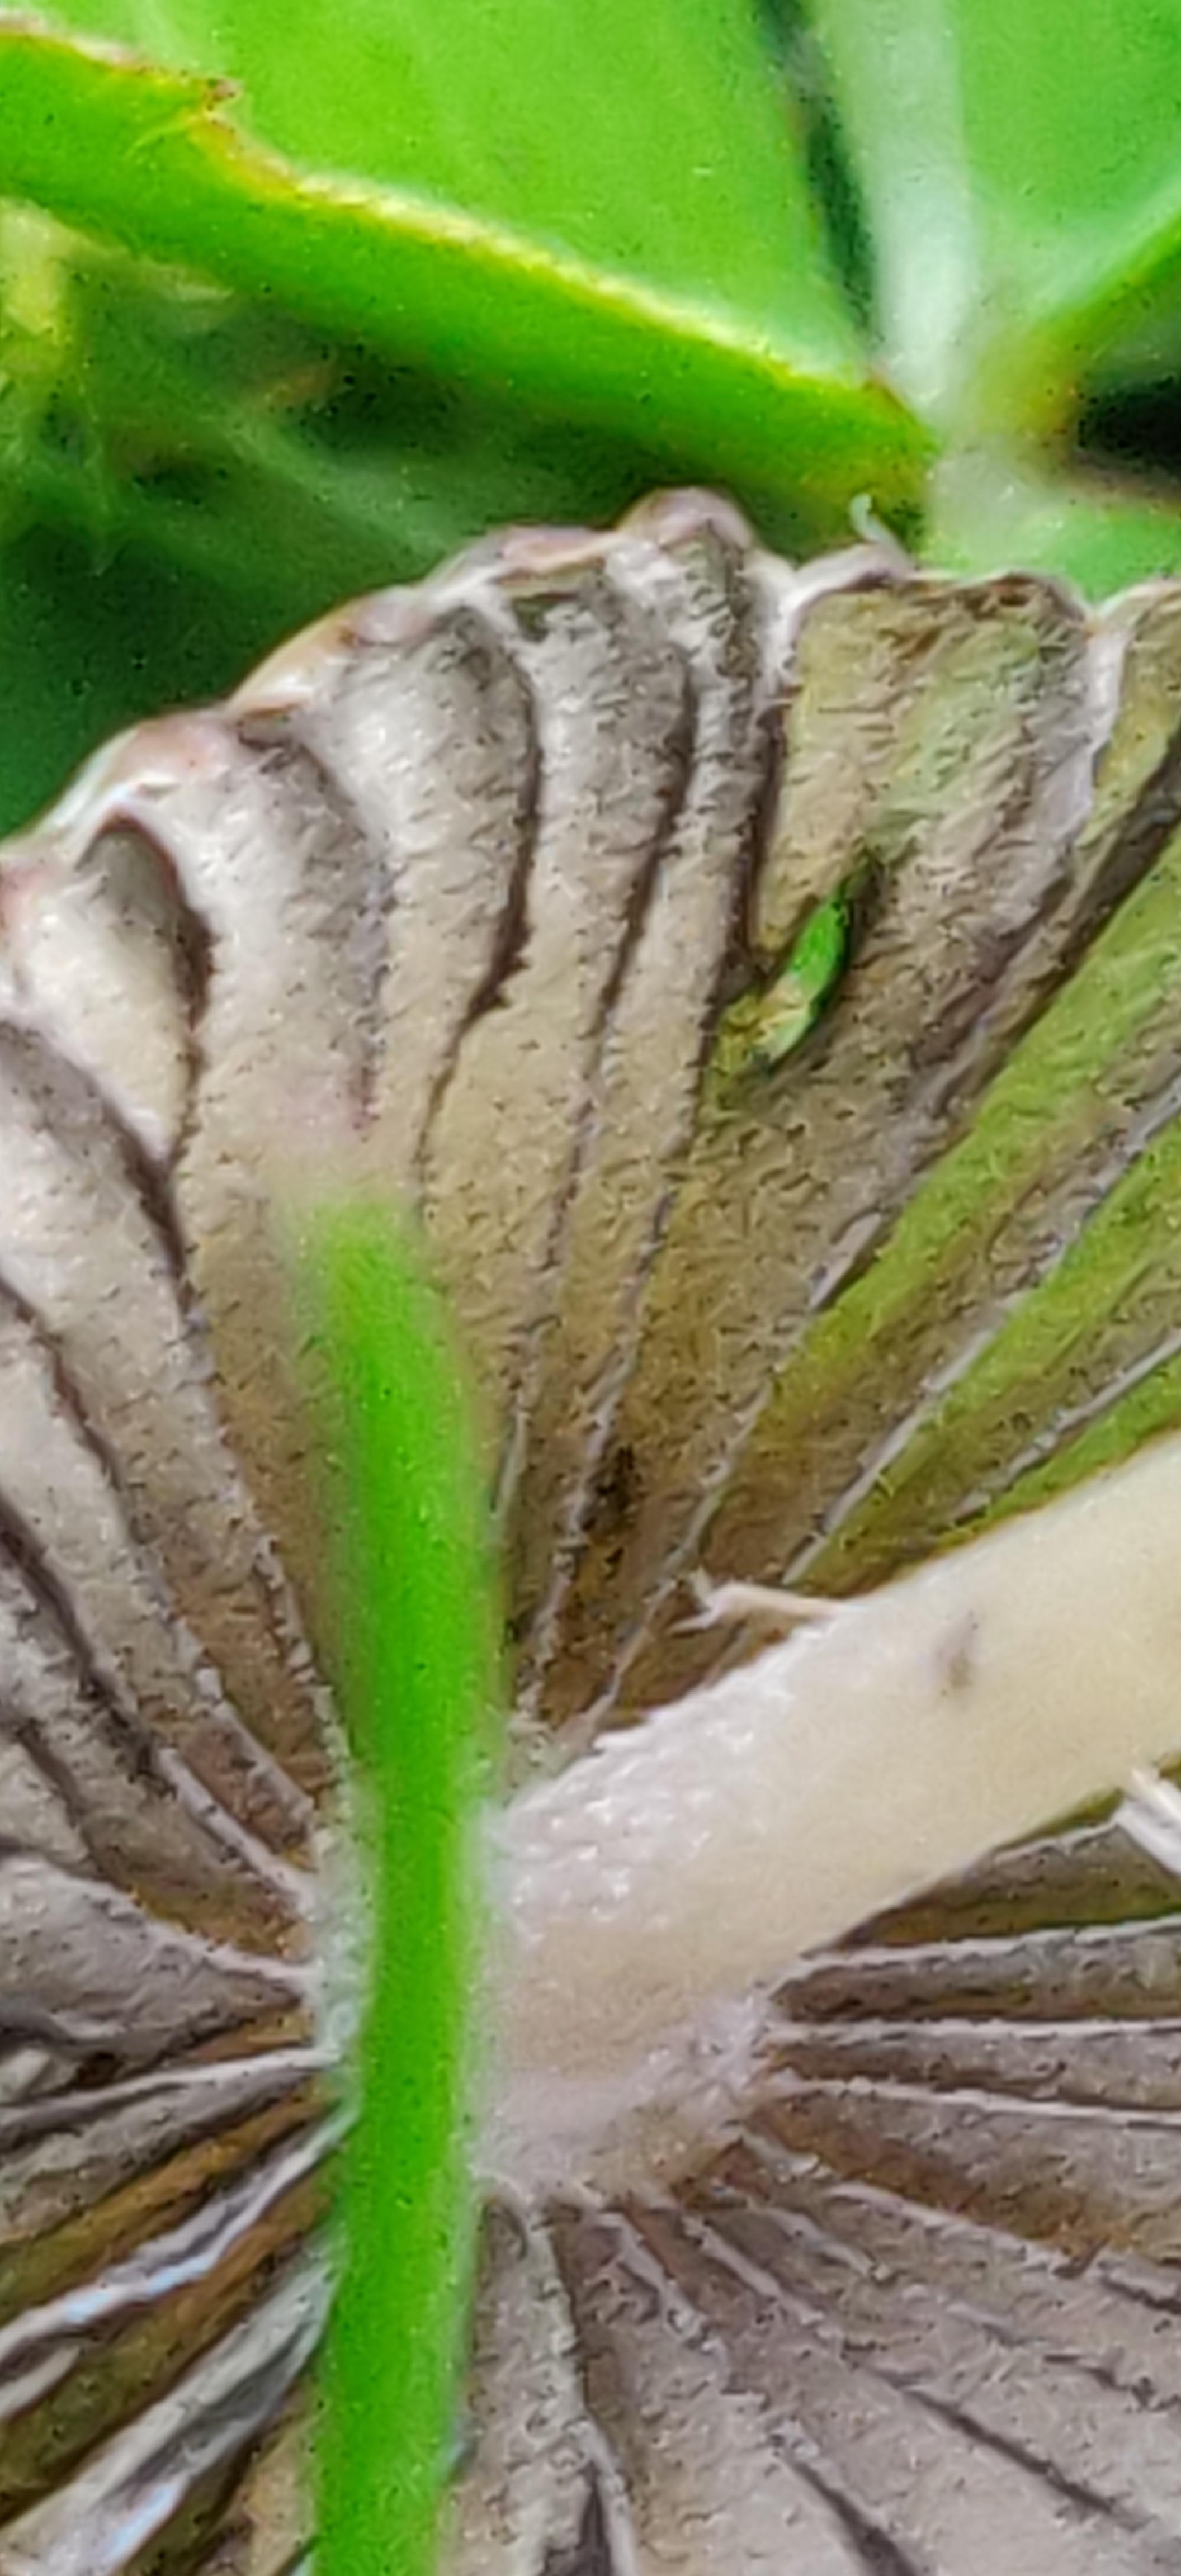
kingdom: Fungi
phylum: Basidiomycota
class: Agaricomycetes
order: Agaricales
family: Psathyrellaceae
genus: Parasola
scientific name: Parasola
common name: hjulhat
